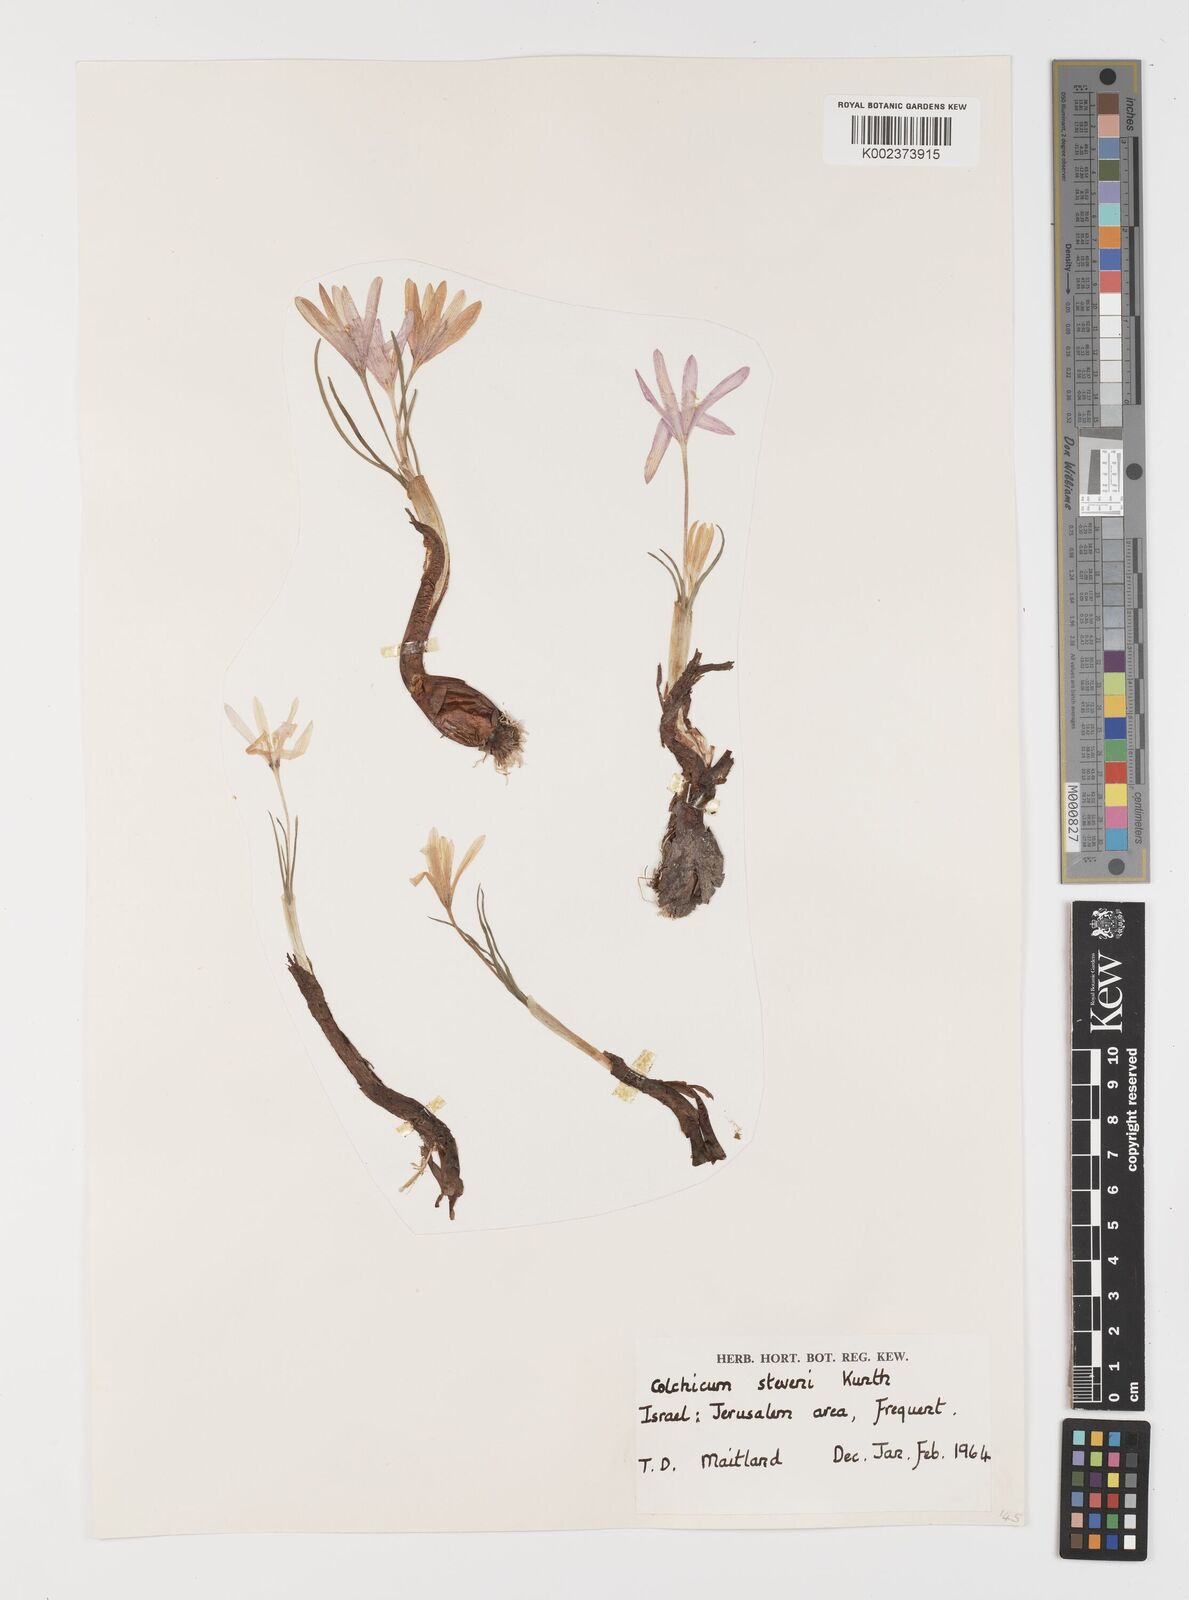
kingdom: Plantae
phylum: Tracheophyta
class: Liliopsida
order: Liliales
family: Colchicaceae
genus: Colchicum
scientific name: Colchicum stevenii
